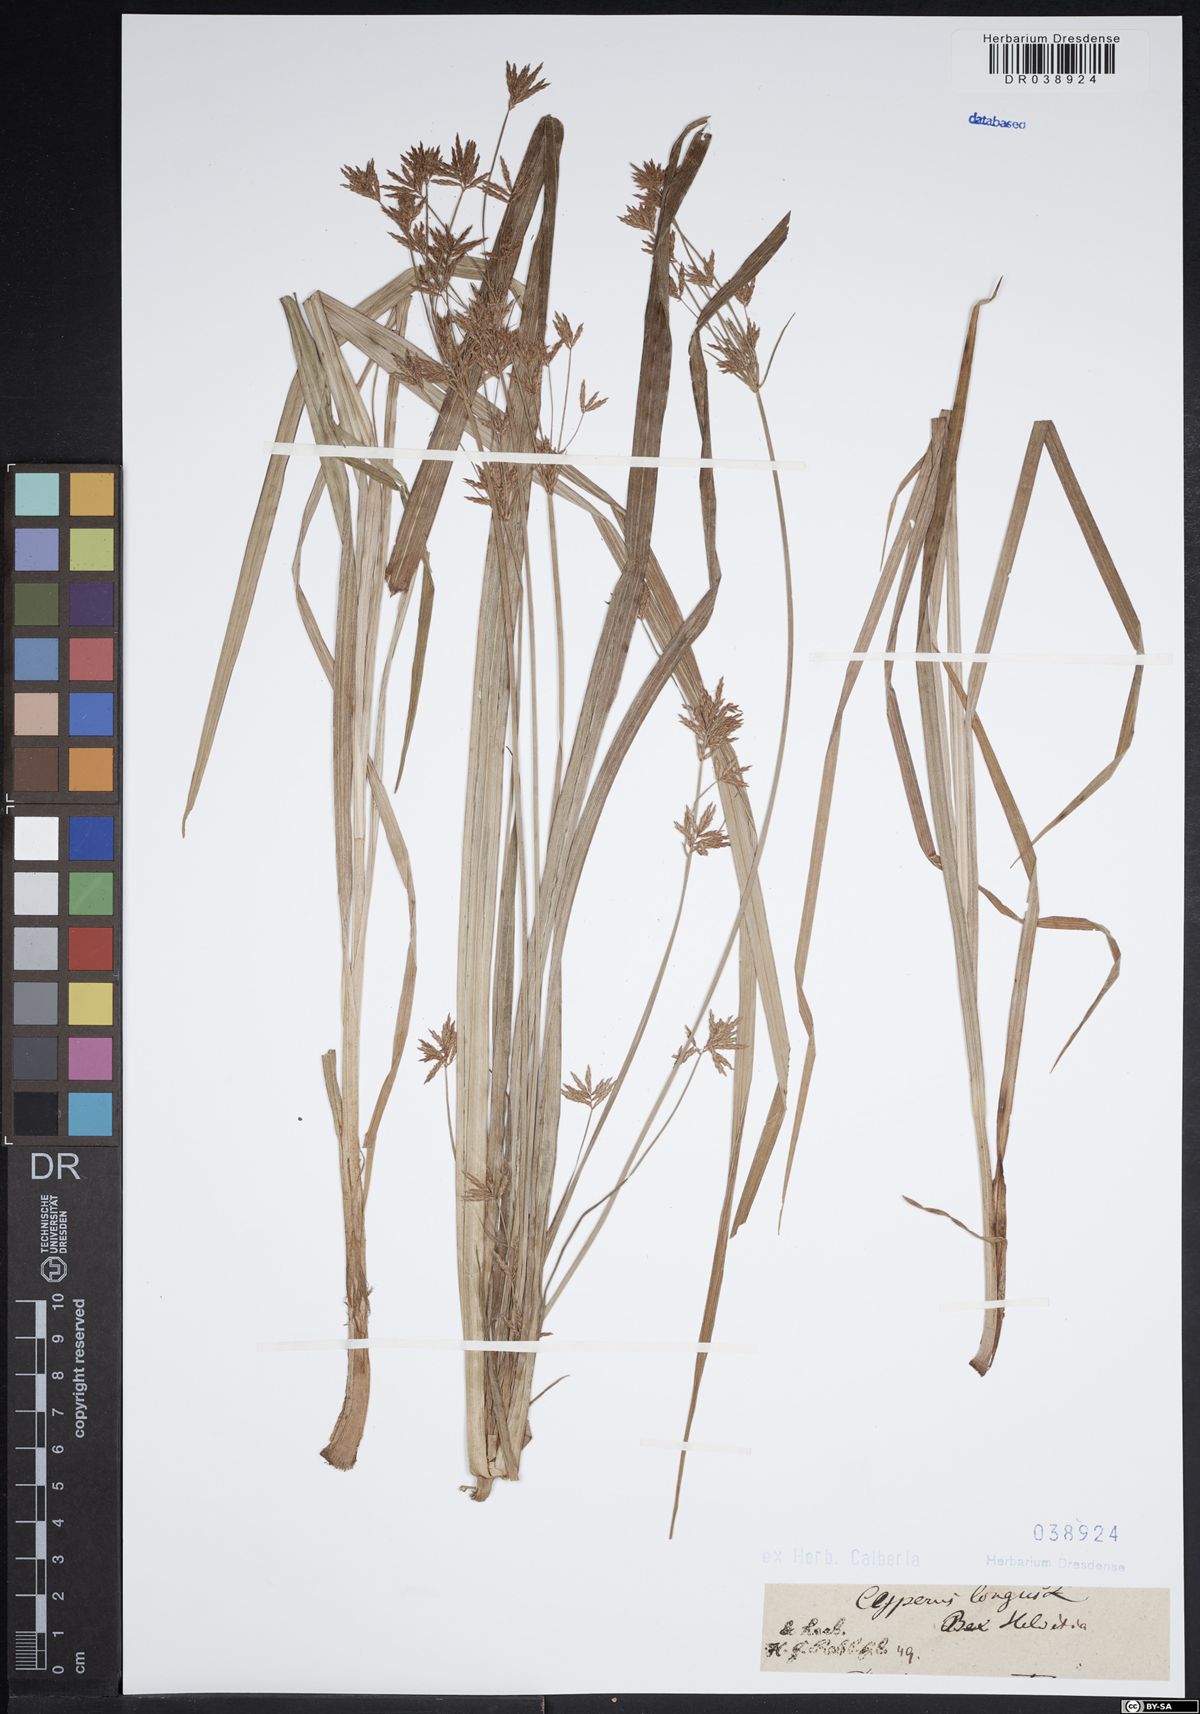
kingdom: Plantae
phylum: Tracheophyta
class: Liliopsida
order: Poales
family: Cyperaceae
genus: Cyperus
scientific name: Cyperus longus
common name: Galingale
